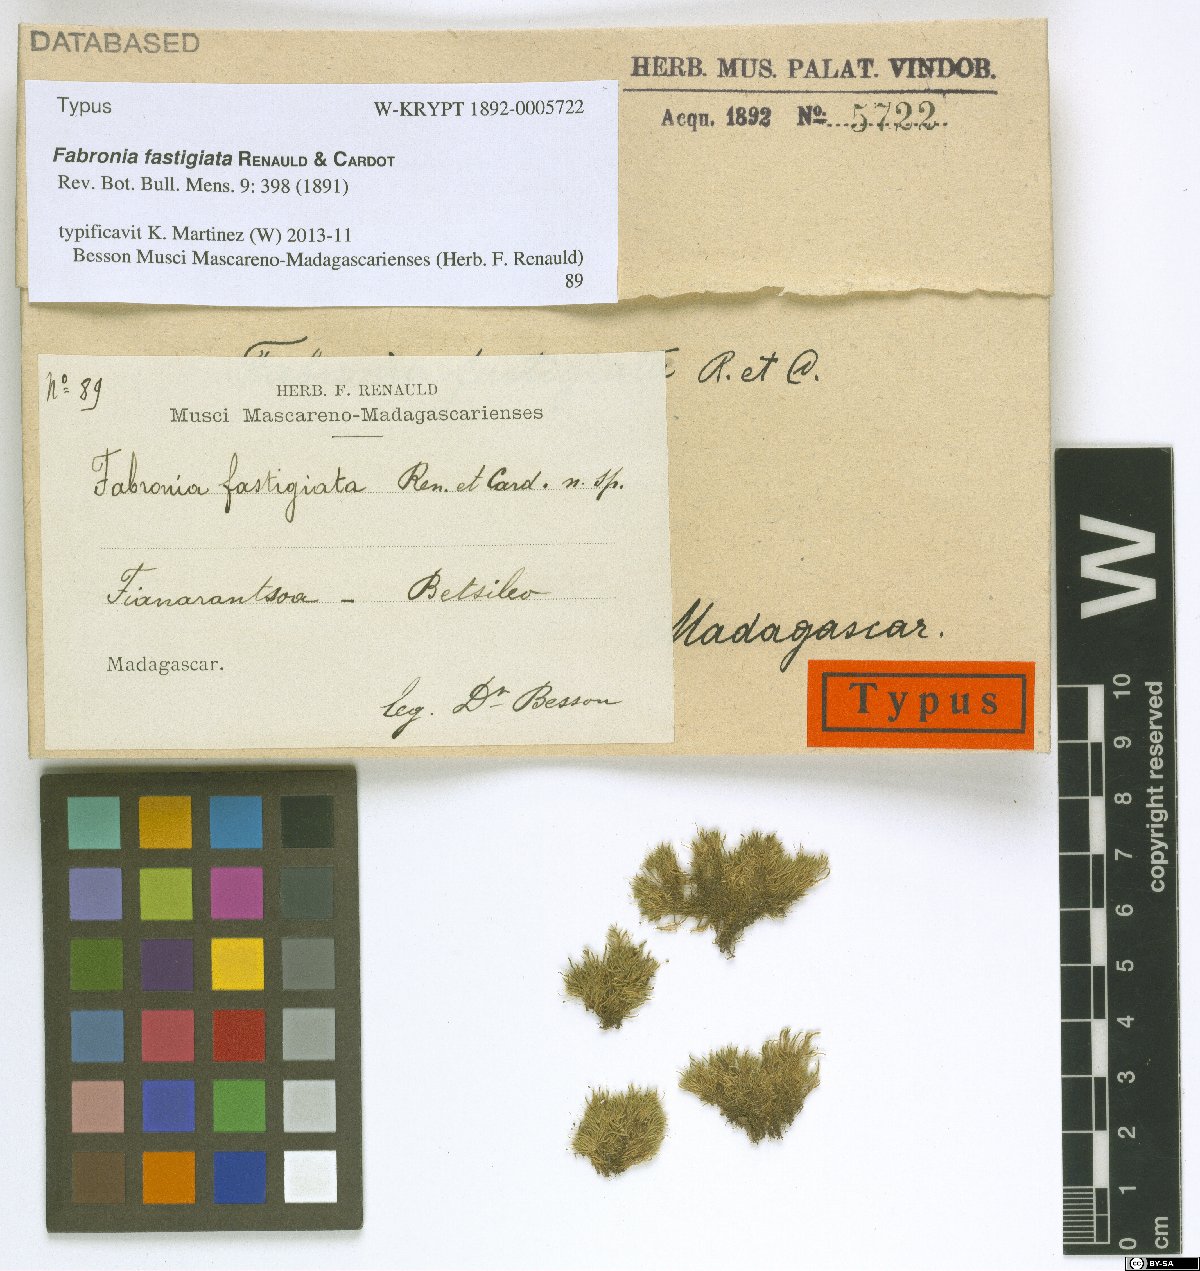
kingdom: Plantae
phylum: Bryophyta
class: Bryopsida
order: Hypnales
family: Fabroniaceae
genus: Fabronia
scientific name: Fabronia fastigiata
